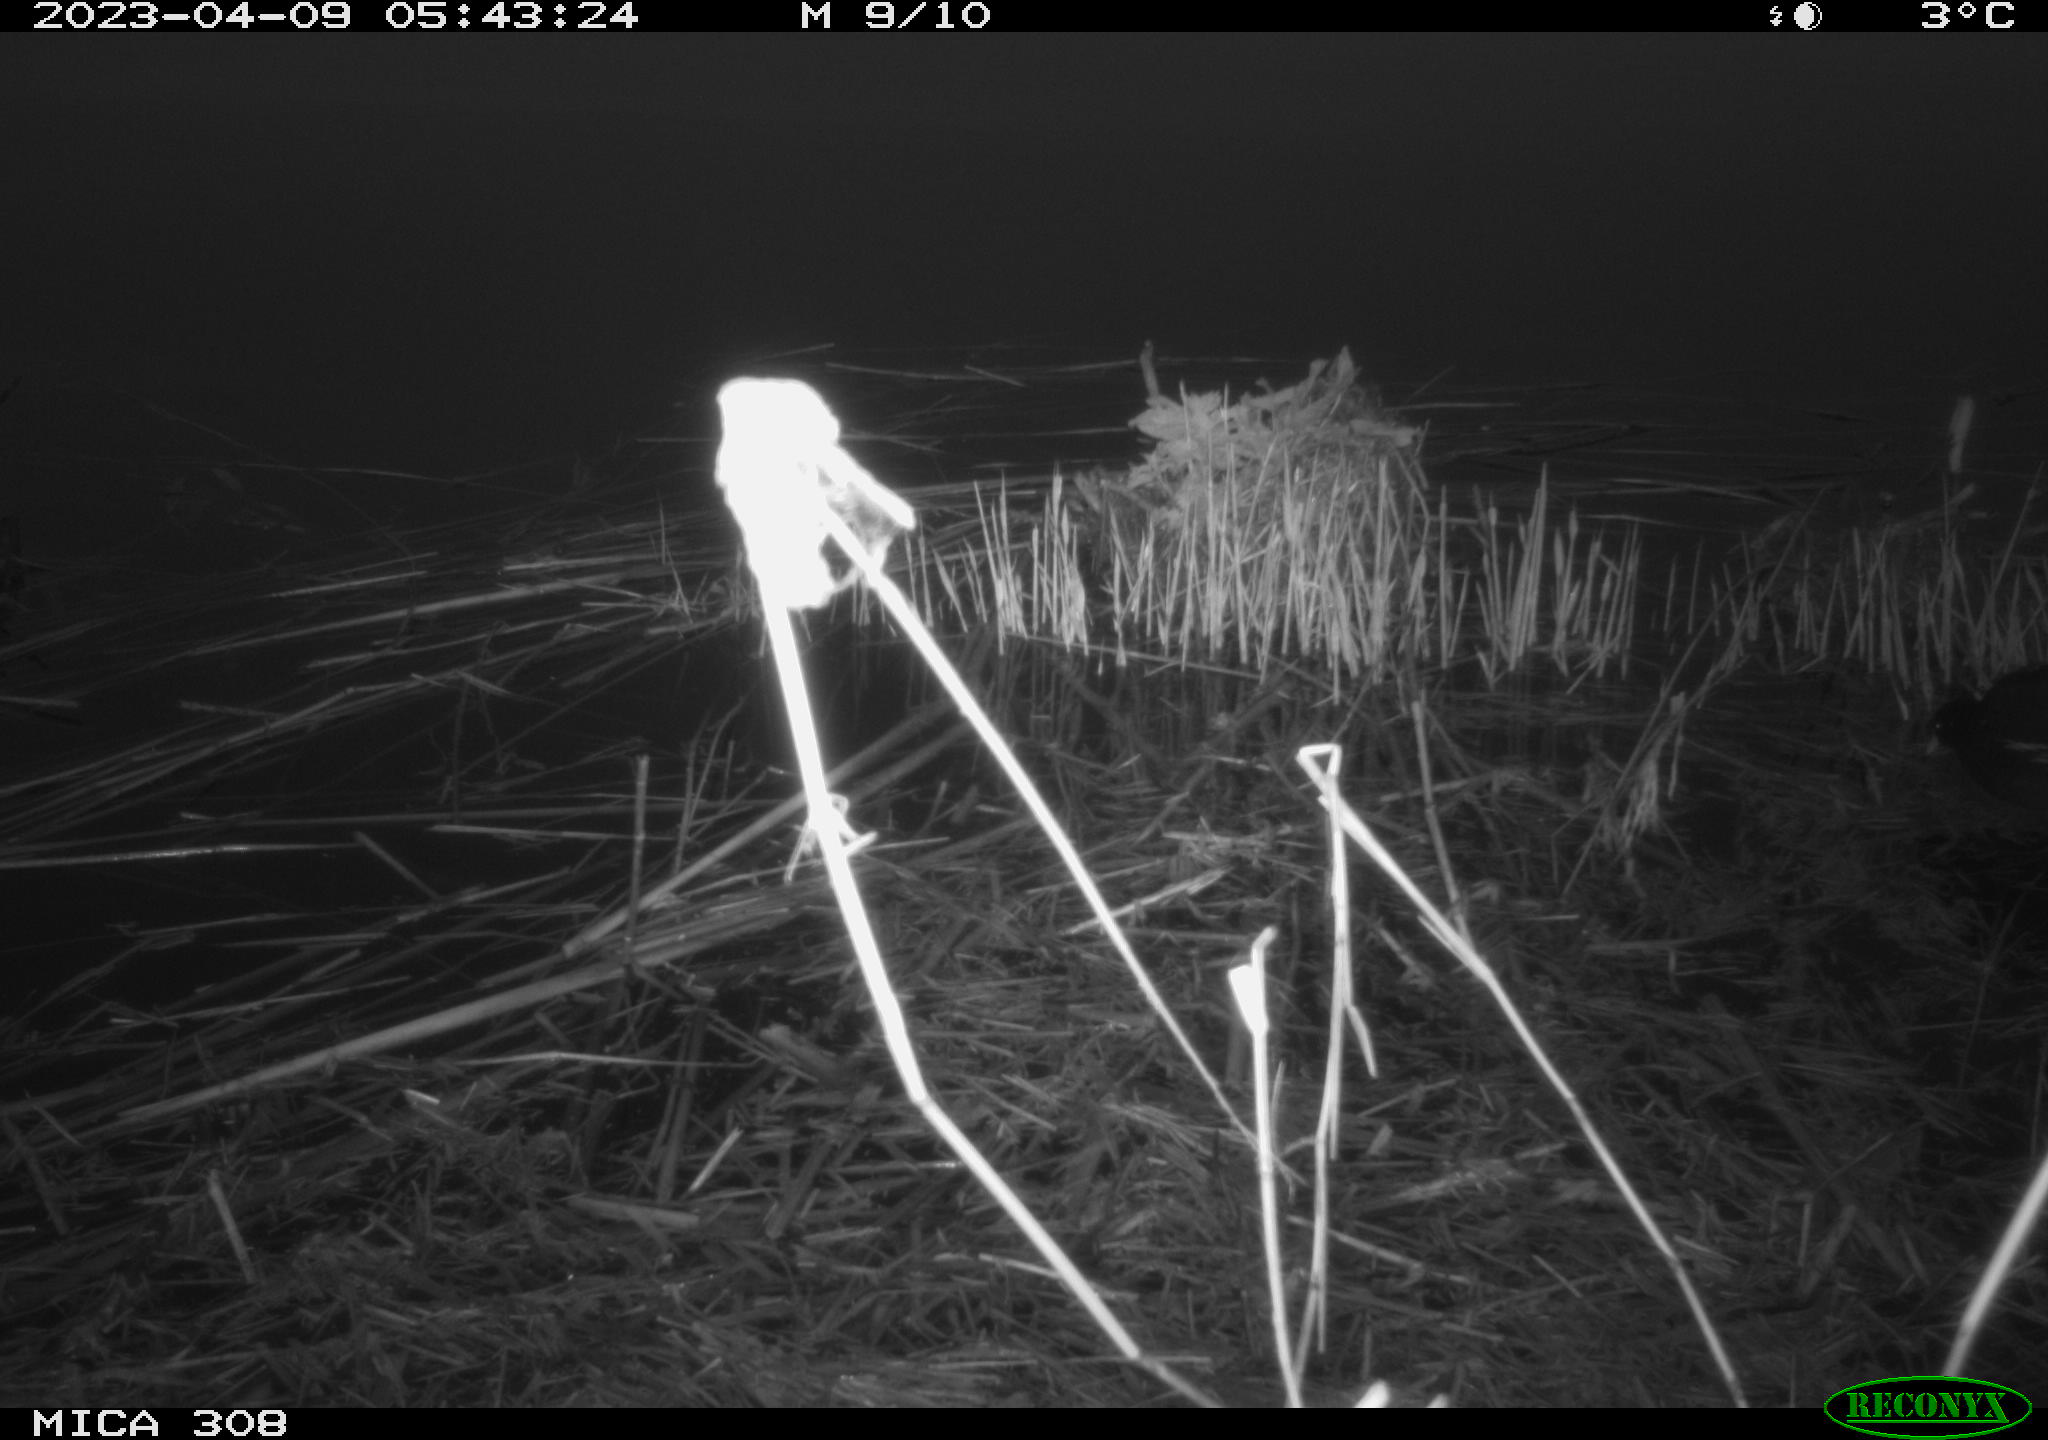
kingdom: Animalia
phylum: Chordata
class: Aves
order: Gruiformes
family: Rallidae
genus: Gallinula
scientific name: Gallinula chloropus
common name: Common moorhen
